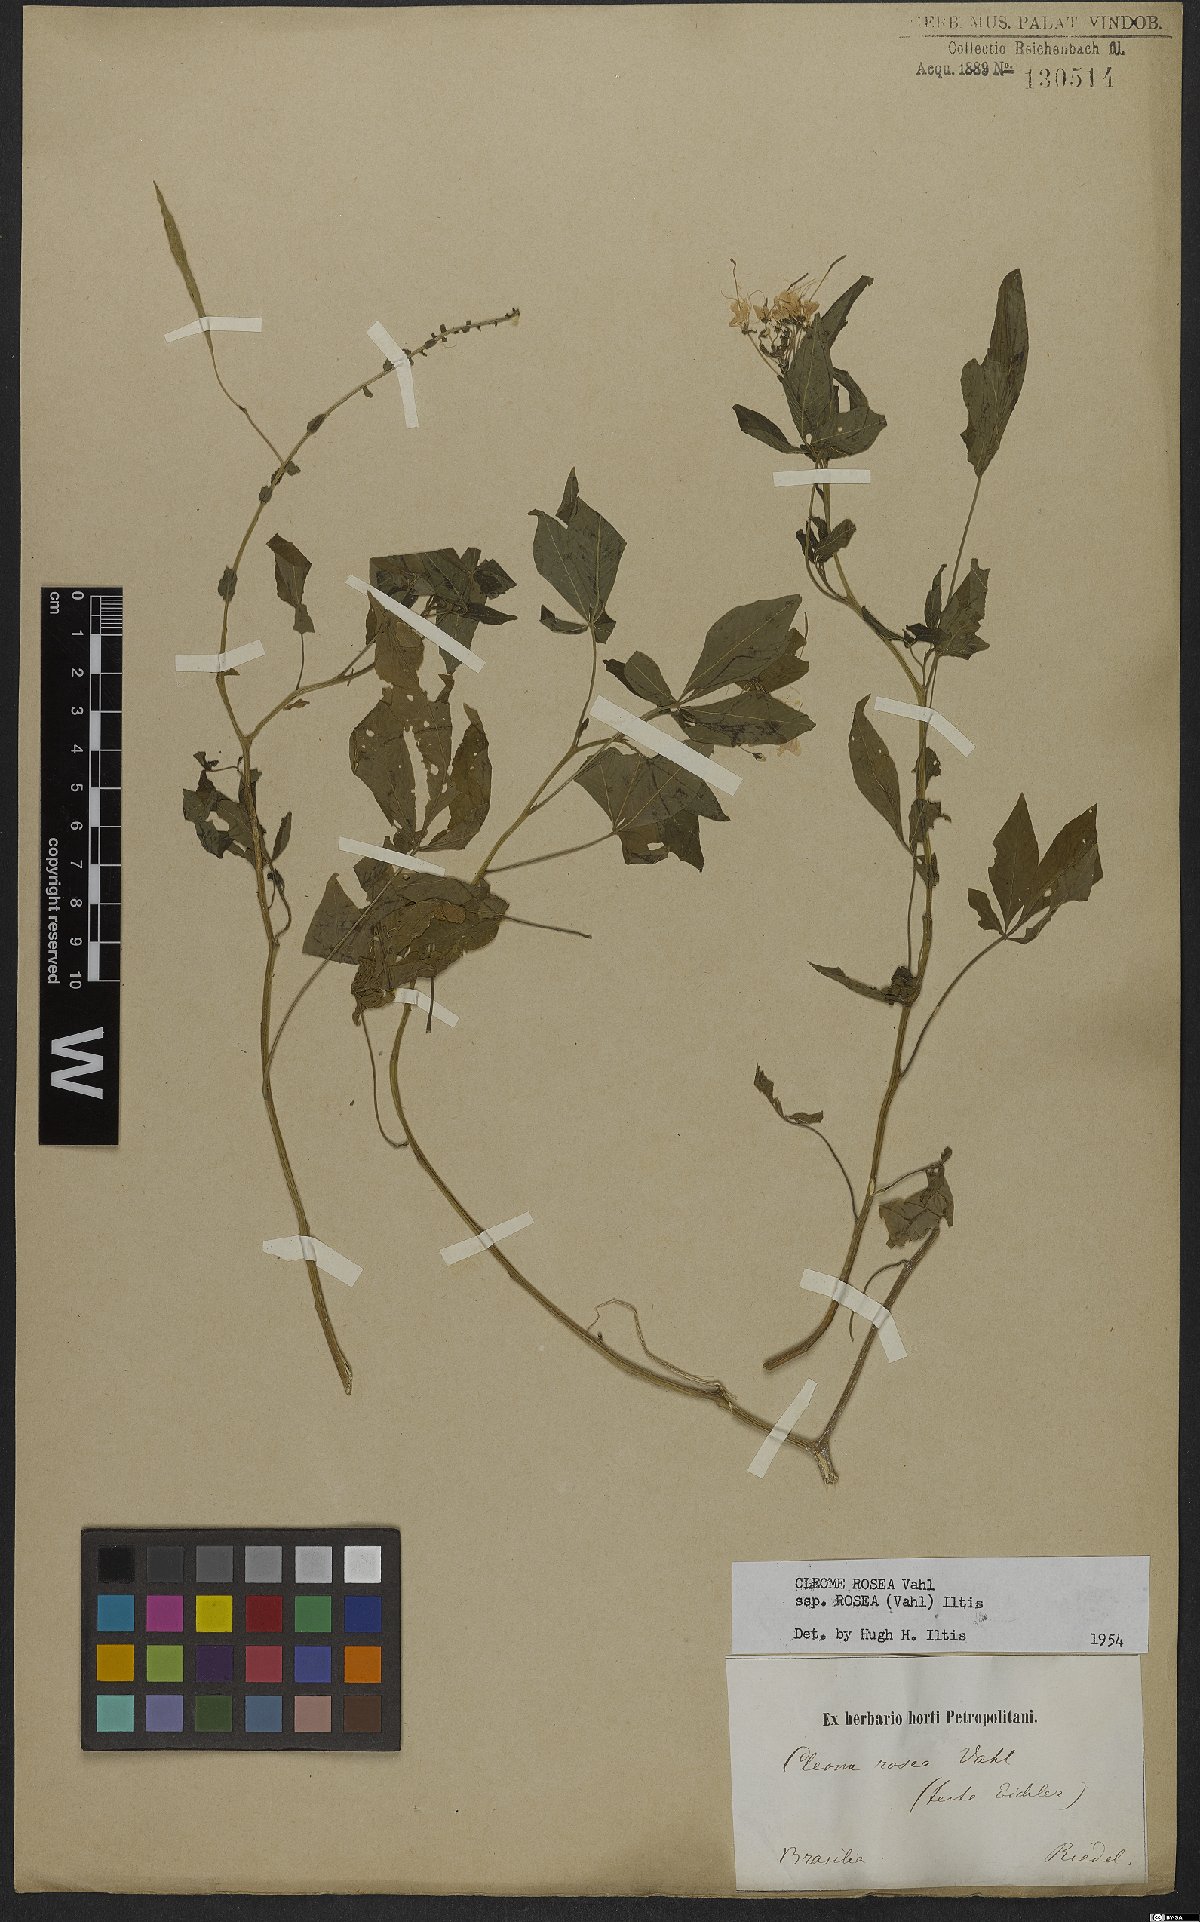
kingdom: Plantae
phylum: Tracheophyta
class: Magnoliopsida
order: Brassicales
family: Cleomaceae
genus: Tarenaya
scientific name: Tarenaya rosea
